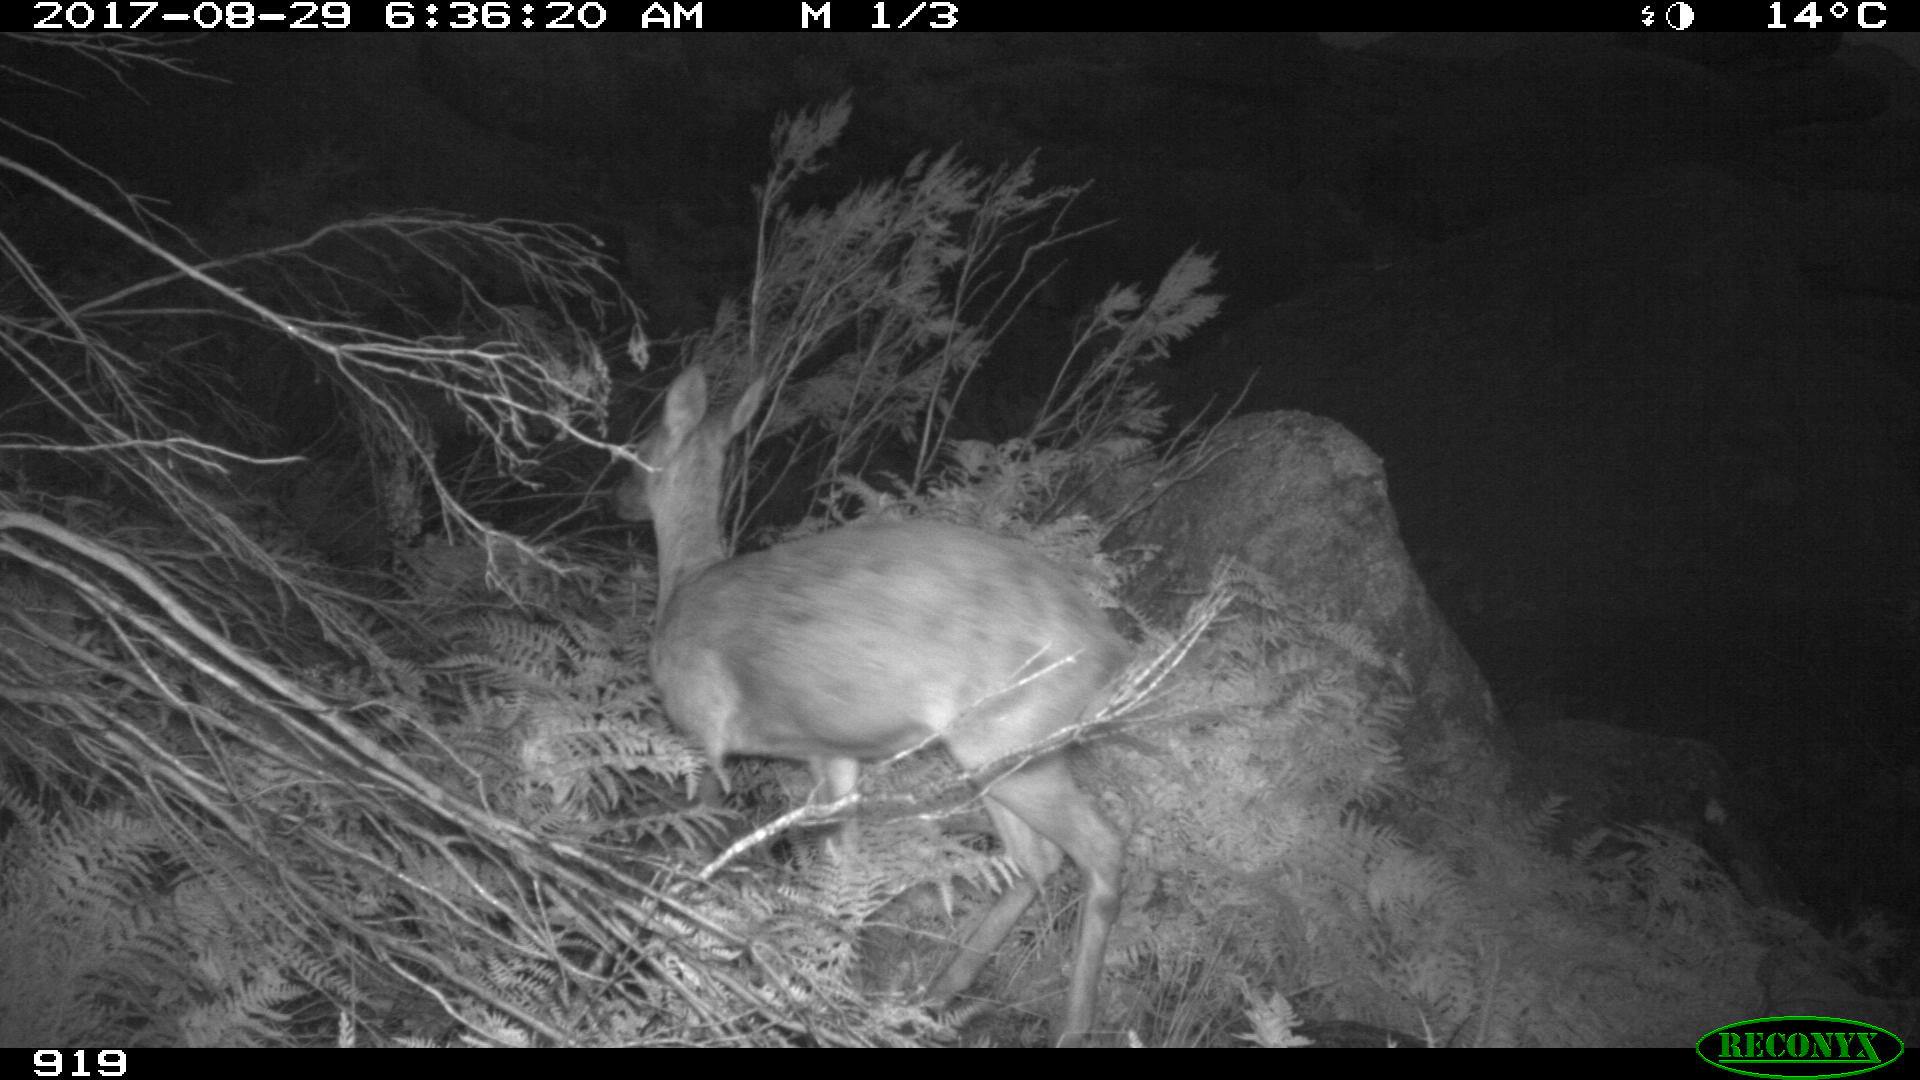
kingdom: Animalia
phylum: Chordata
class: Mammalia
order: Artiodactyla
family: Cervidae
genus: Capreolus
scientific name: Capreolus capreolus
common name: Western roe deer
